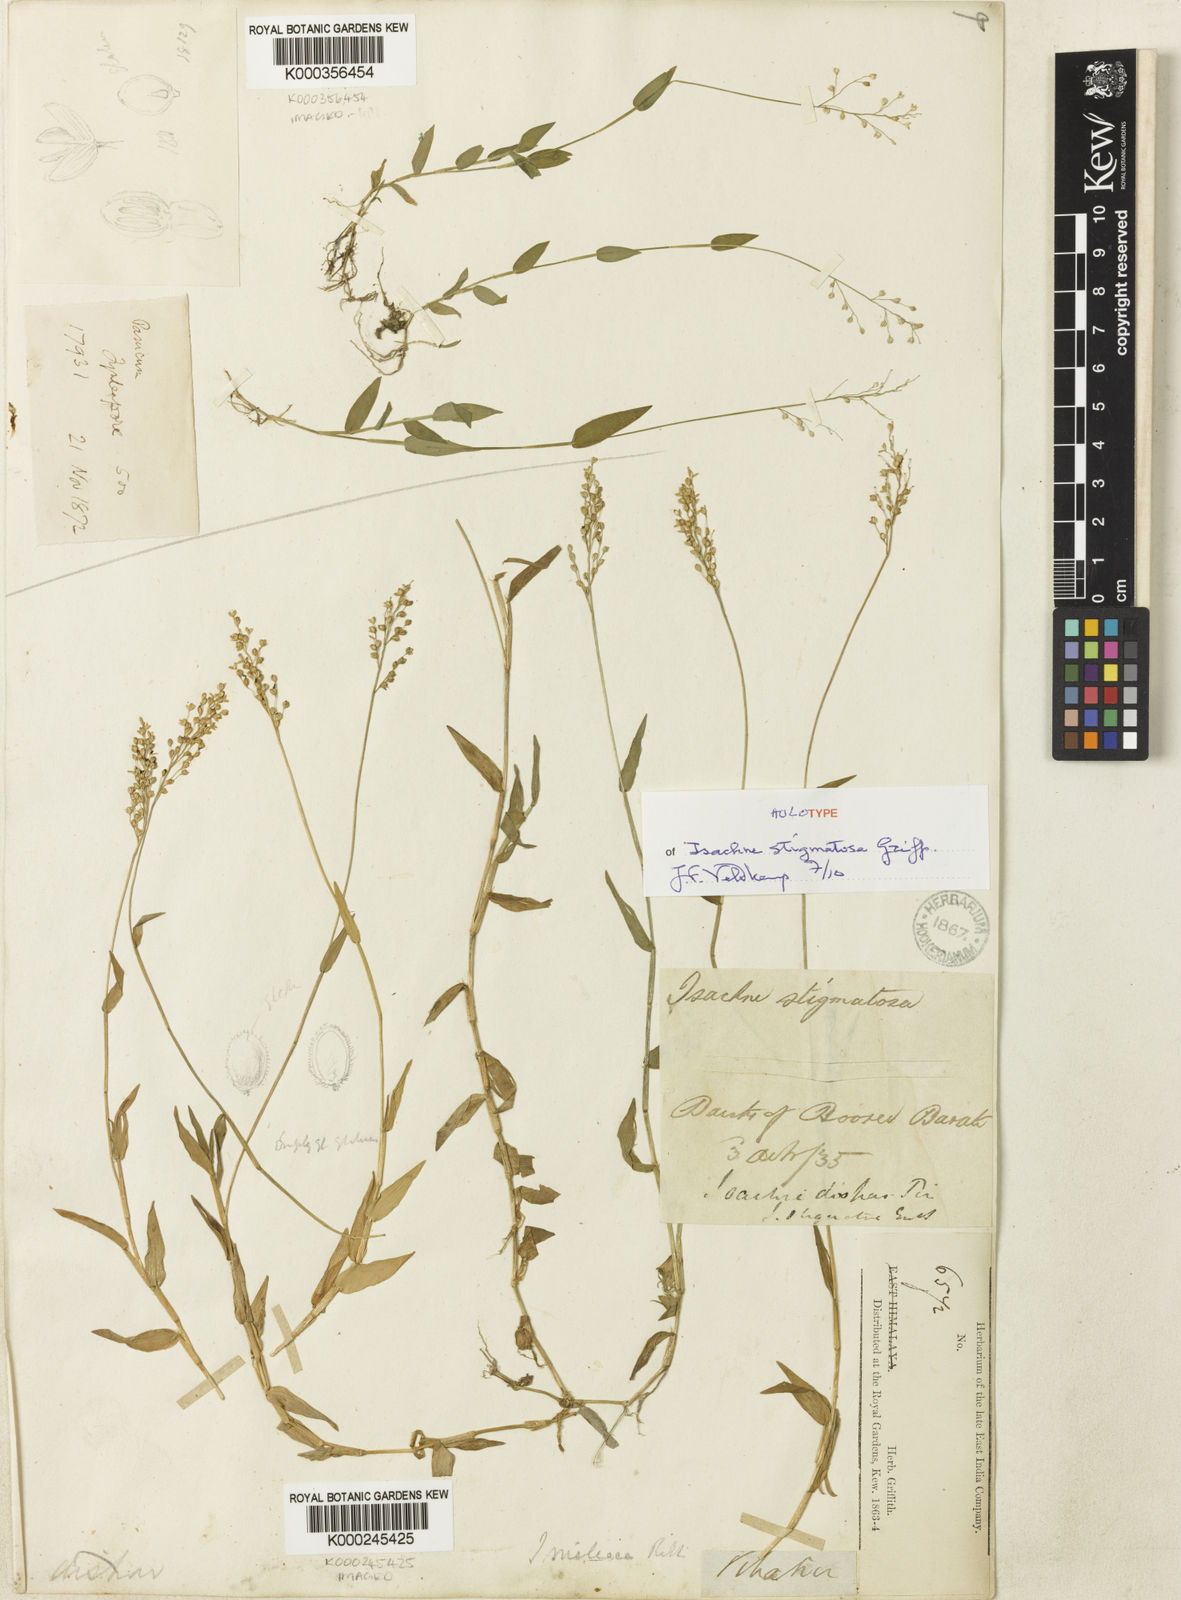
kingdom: Plantae
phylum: Tracheophyta
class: Liliopsida
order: Poales
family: Poaceae
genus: Isachne
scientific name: Isachne globosa
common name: Swamp millet
